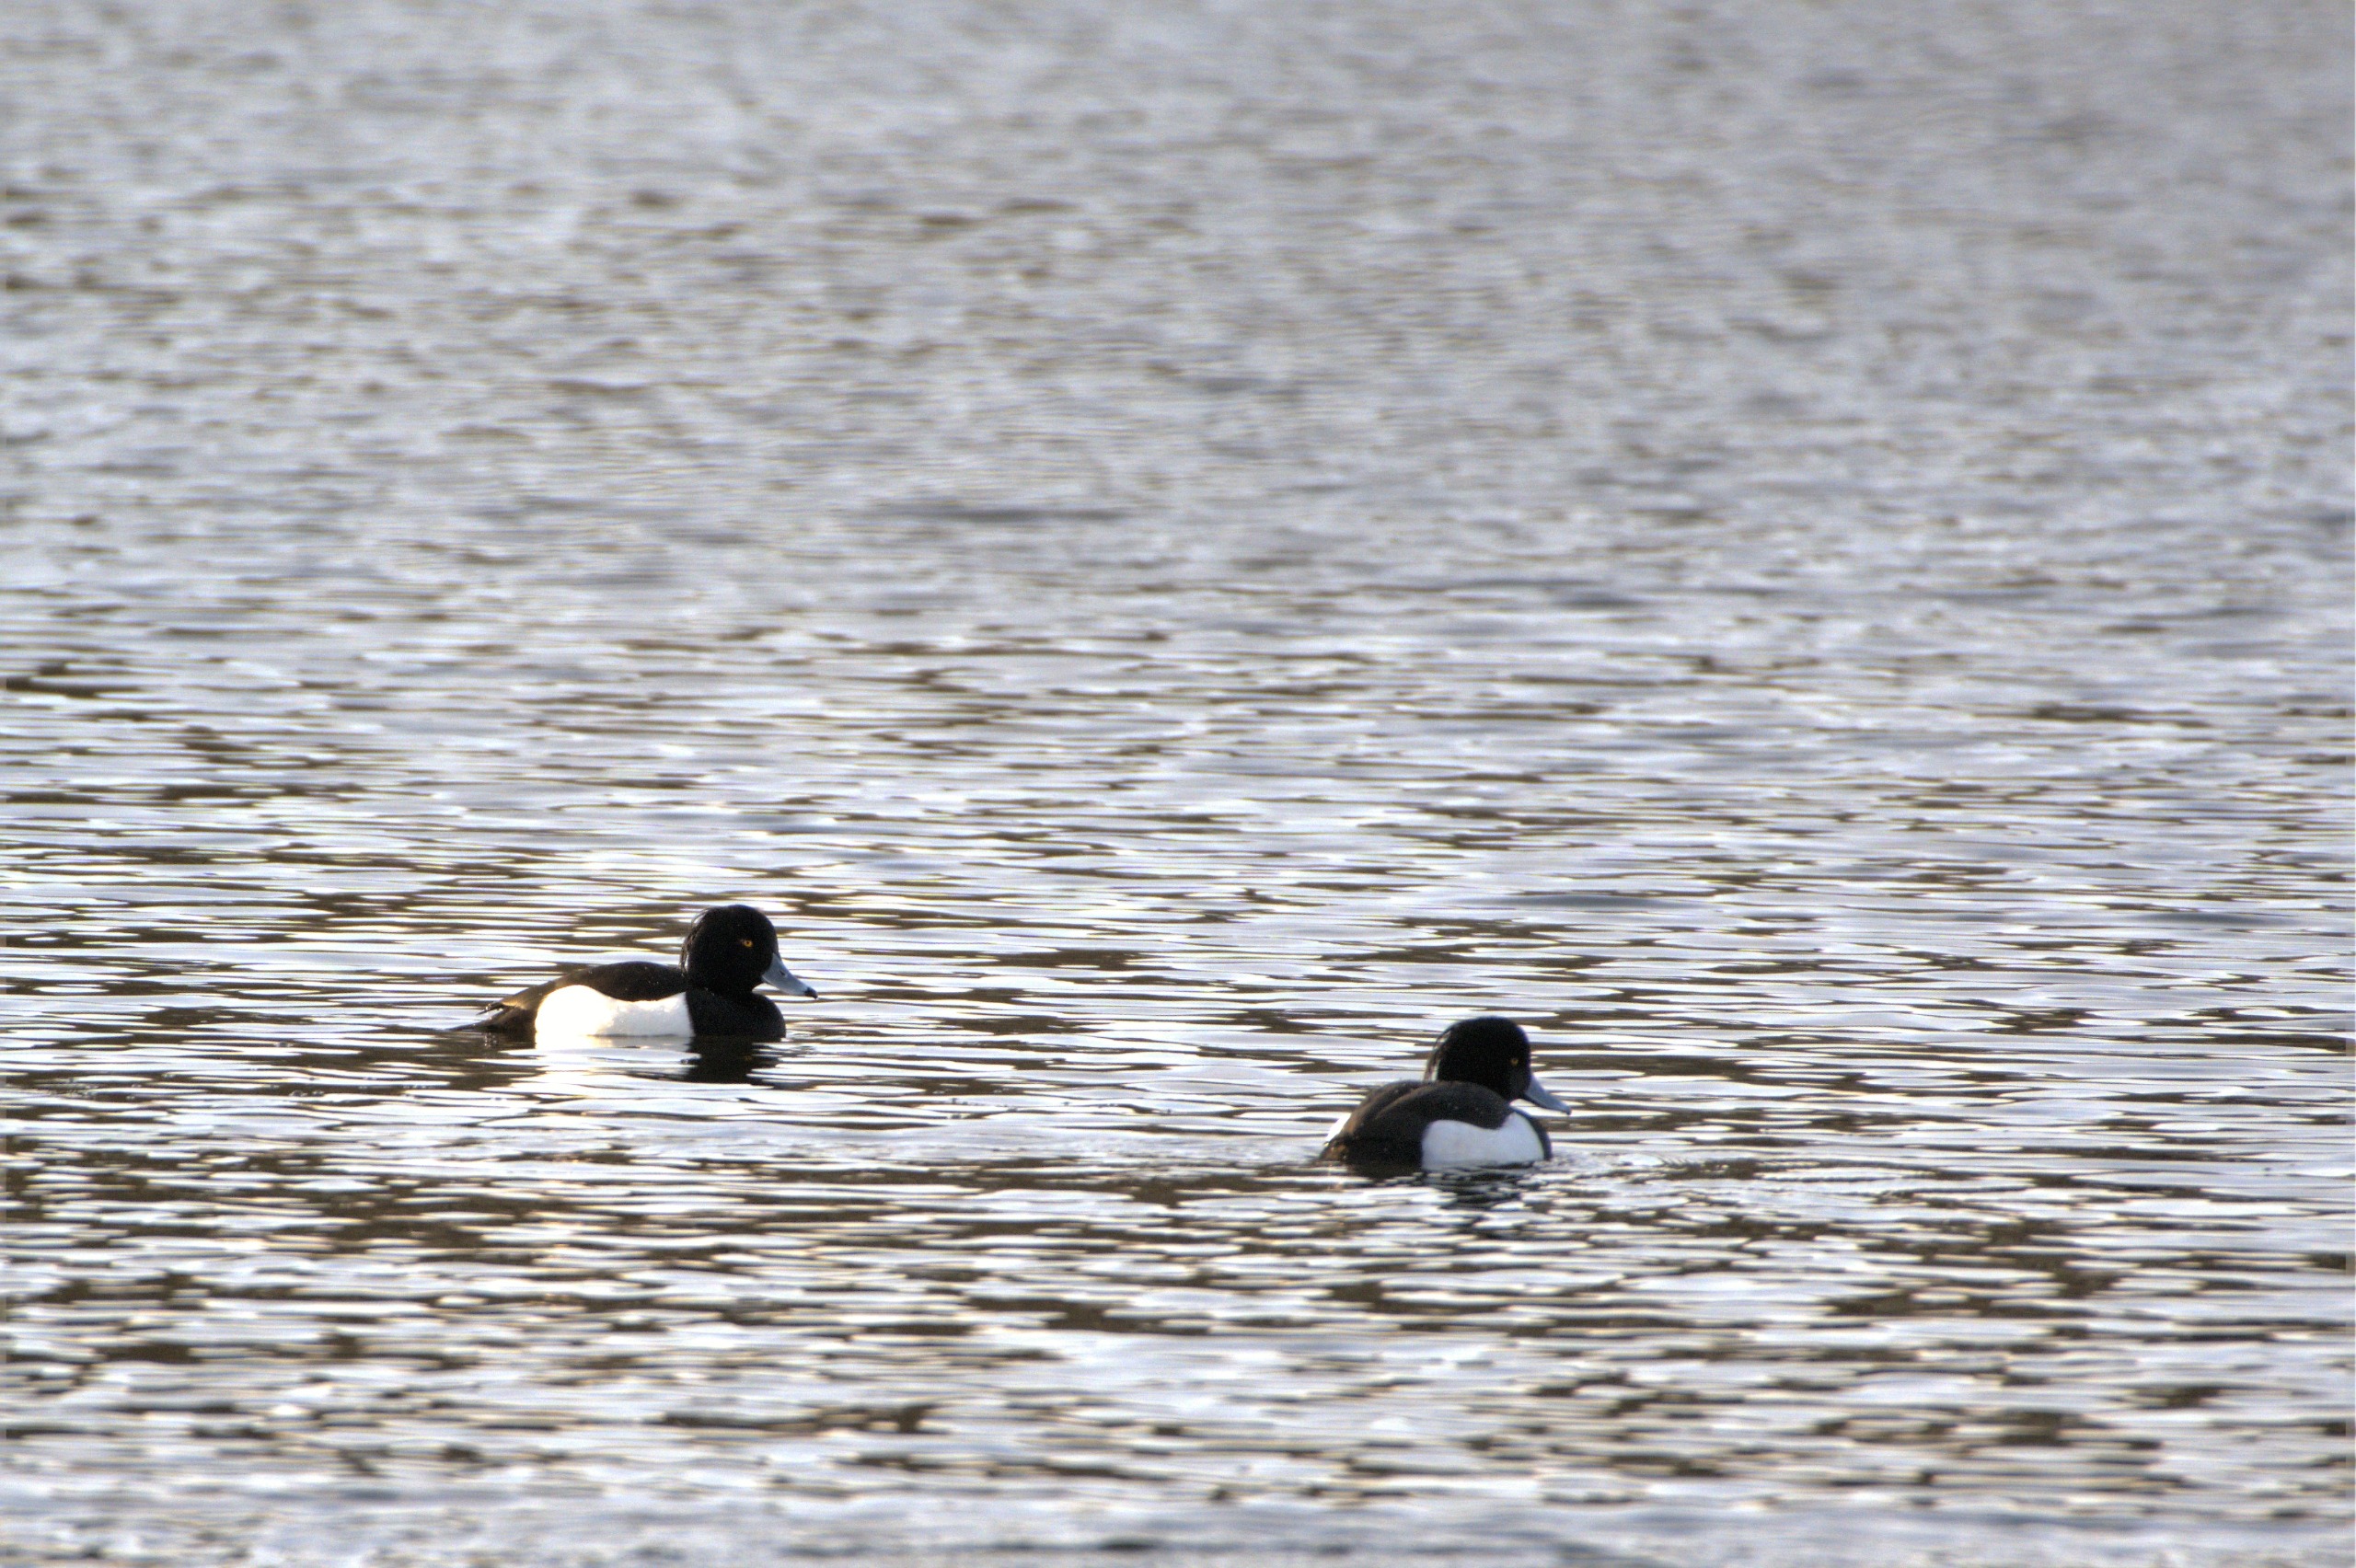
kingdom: Animalia
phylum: Chordata
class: Aves
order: Anseriformes
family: Anatidae
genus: Aythya
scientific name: Aythya fuligula
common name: Troldand
